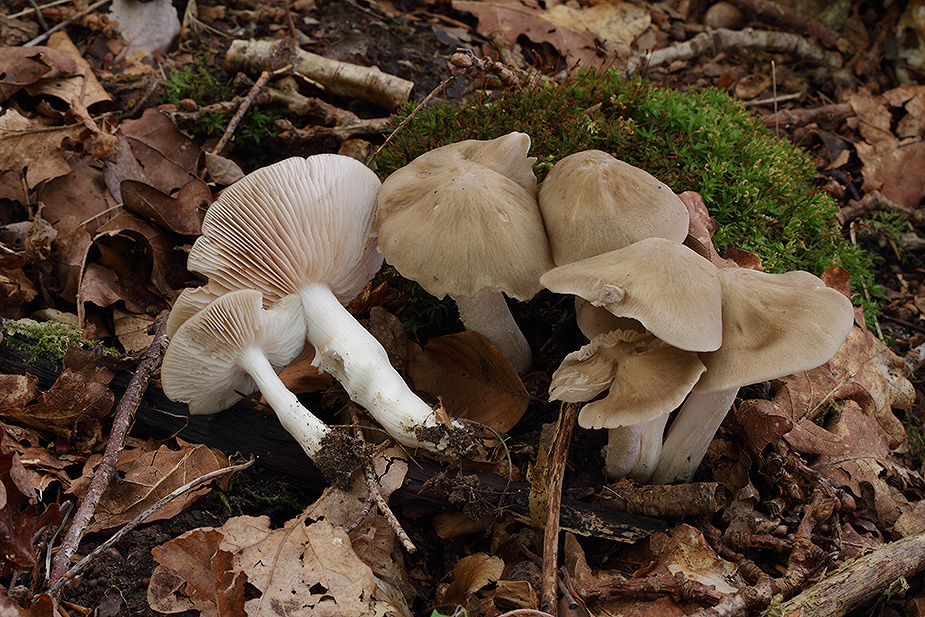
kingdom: Fungi
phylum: Basidiomycota
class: Agaricomycetes
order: Agaricales
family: Entolomataceae
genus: Entoloma
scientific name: Entoloma rhodopolium
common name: skov-rødblad
